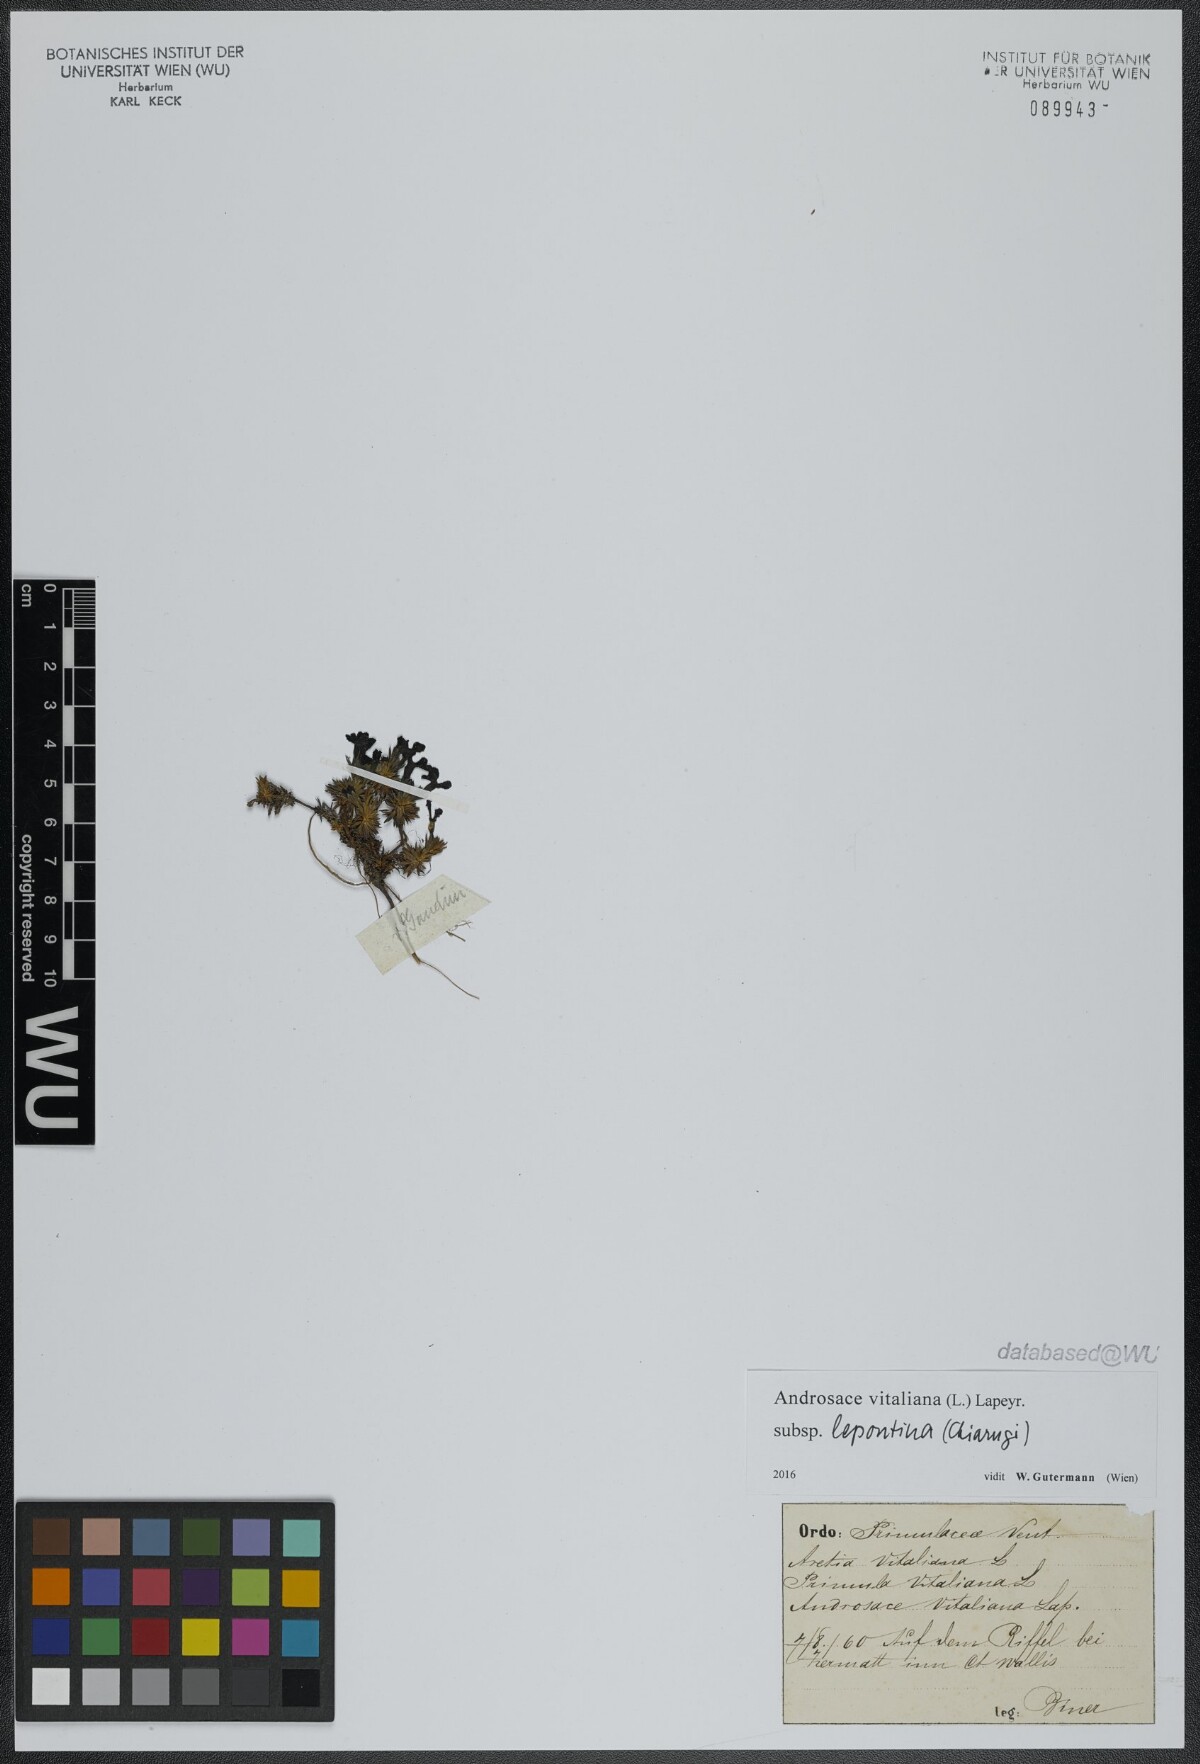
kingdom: Plantae
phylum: Tracheophyta
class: Magnoliopsida
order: Ericales
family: Primulaceae
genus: Androsace
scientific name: Androsace vitaliana
